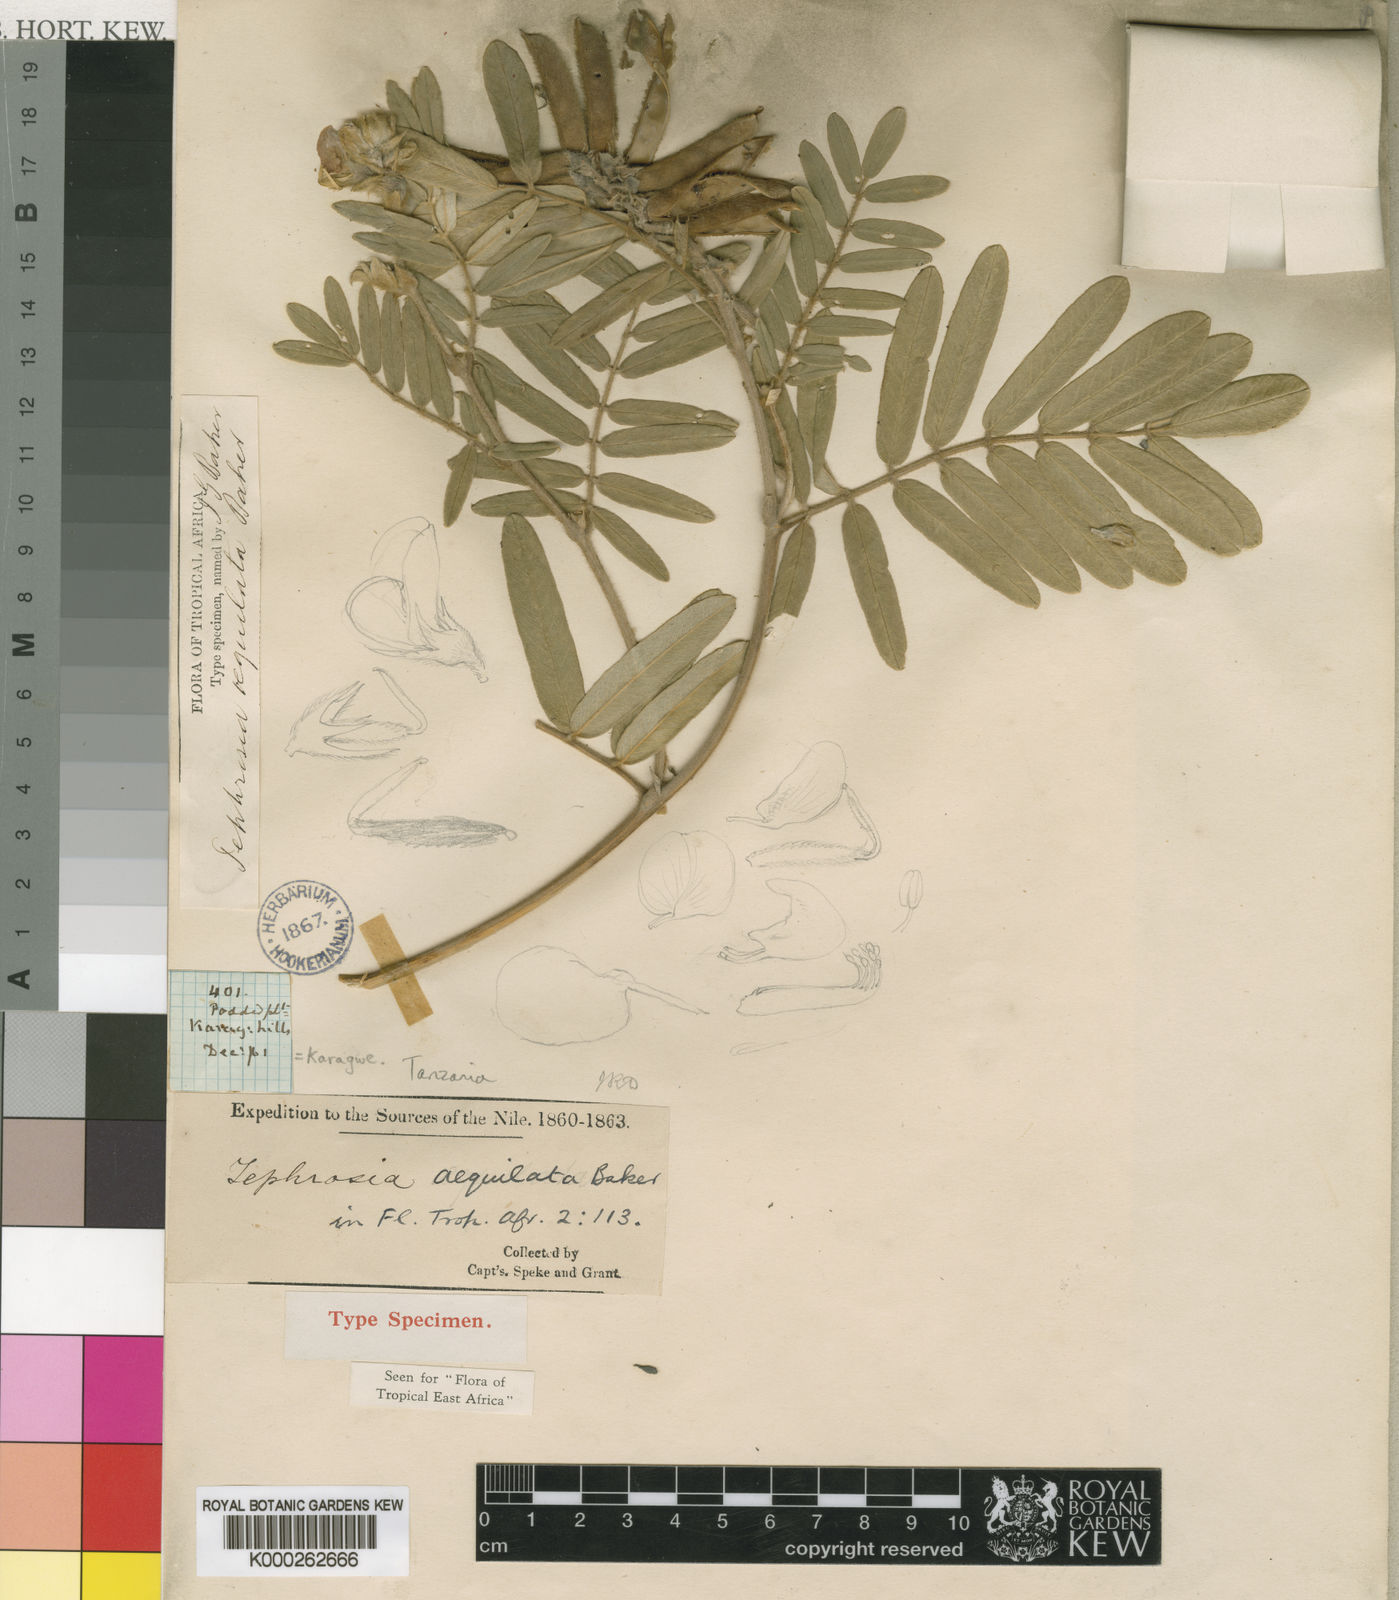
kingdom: Plantae
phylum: Tracheophyta
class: Magnoliopsida
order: Fabales
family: Fabaceae
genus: Tephrosia
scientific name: Tephrosia
